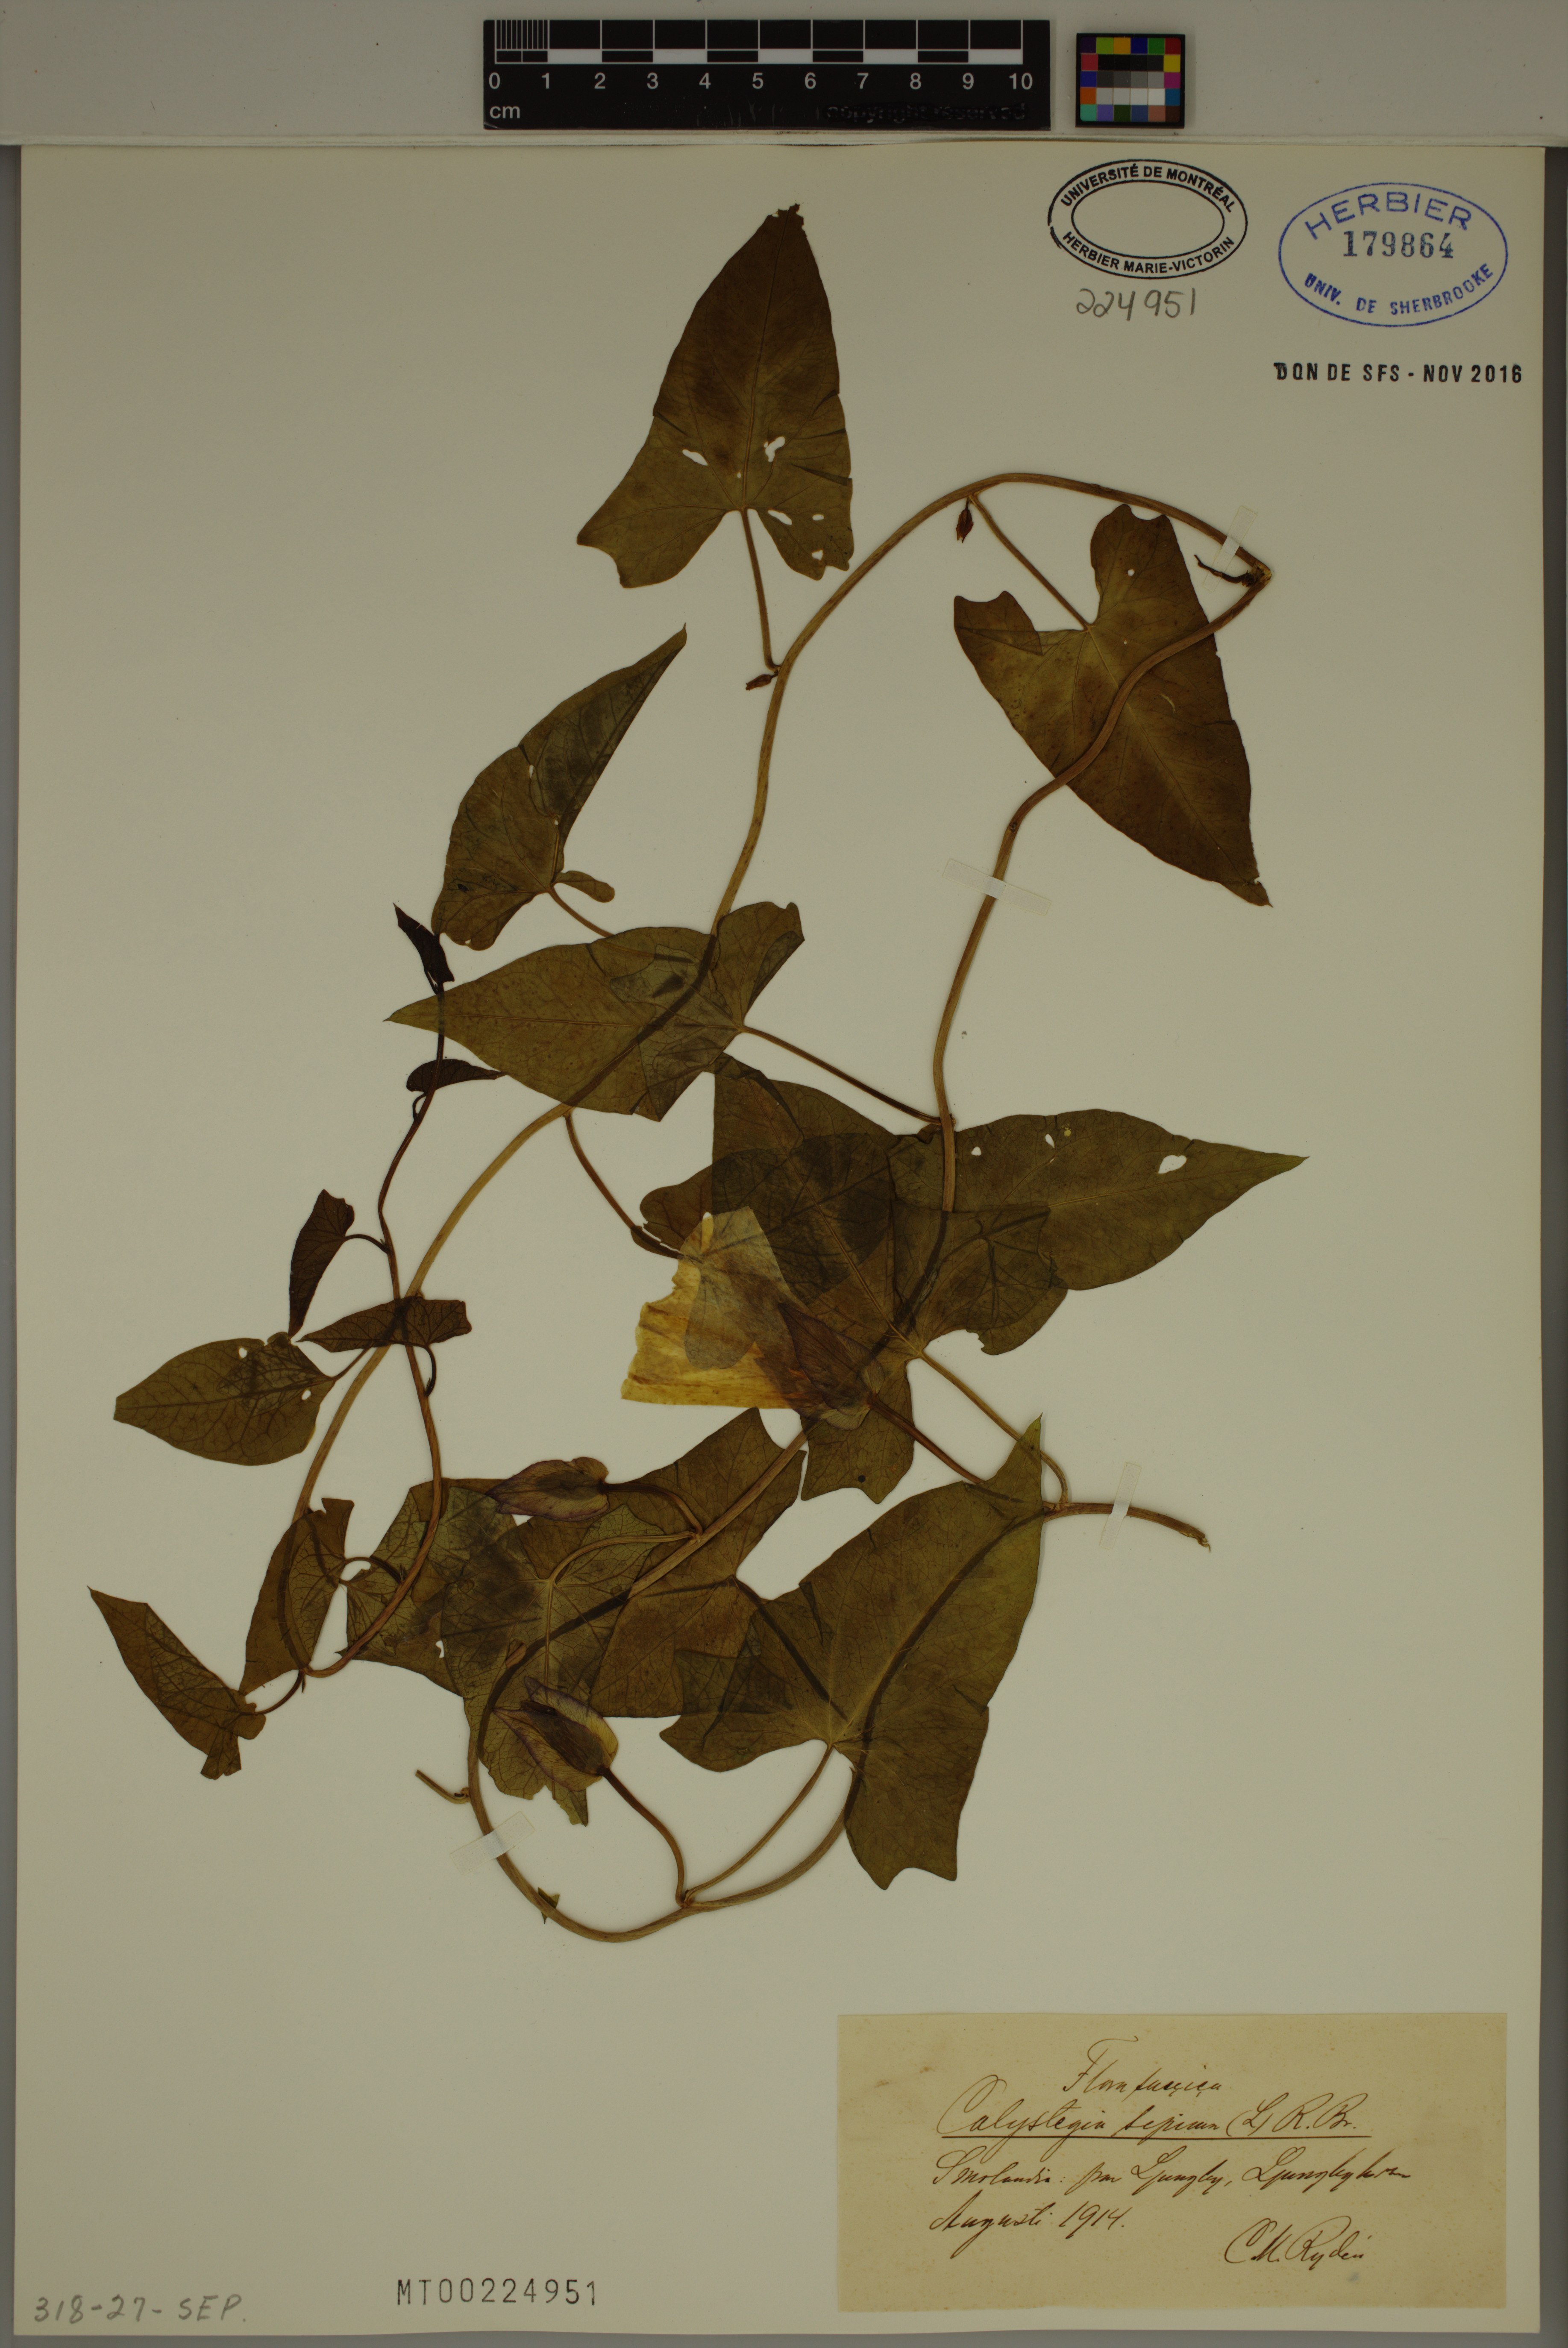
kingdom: Plantae
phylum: Tracheophyta
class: Magnoliopsida
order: Solanales
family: Convolvulaceae
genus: Calystegia
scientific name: Calystegia sepium
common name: Hedge bindweed
